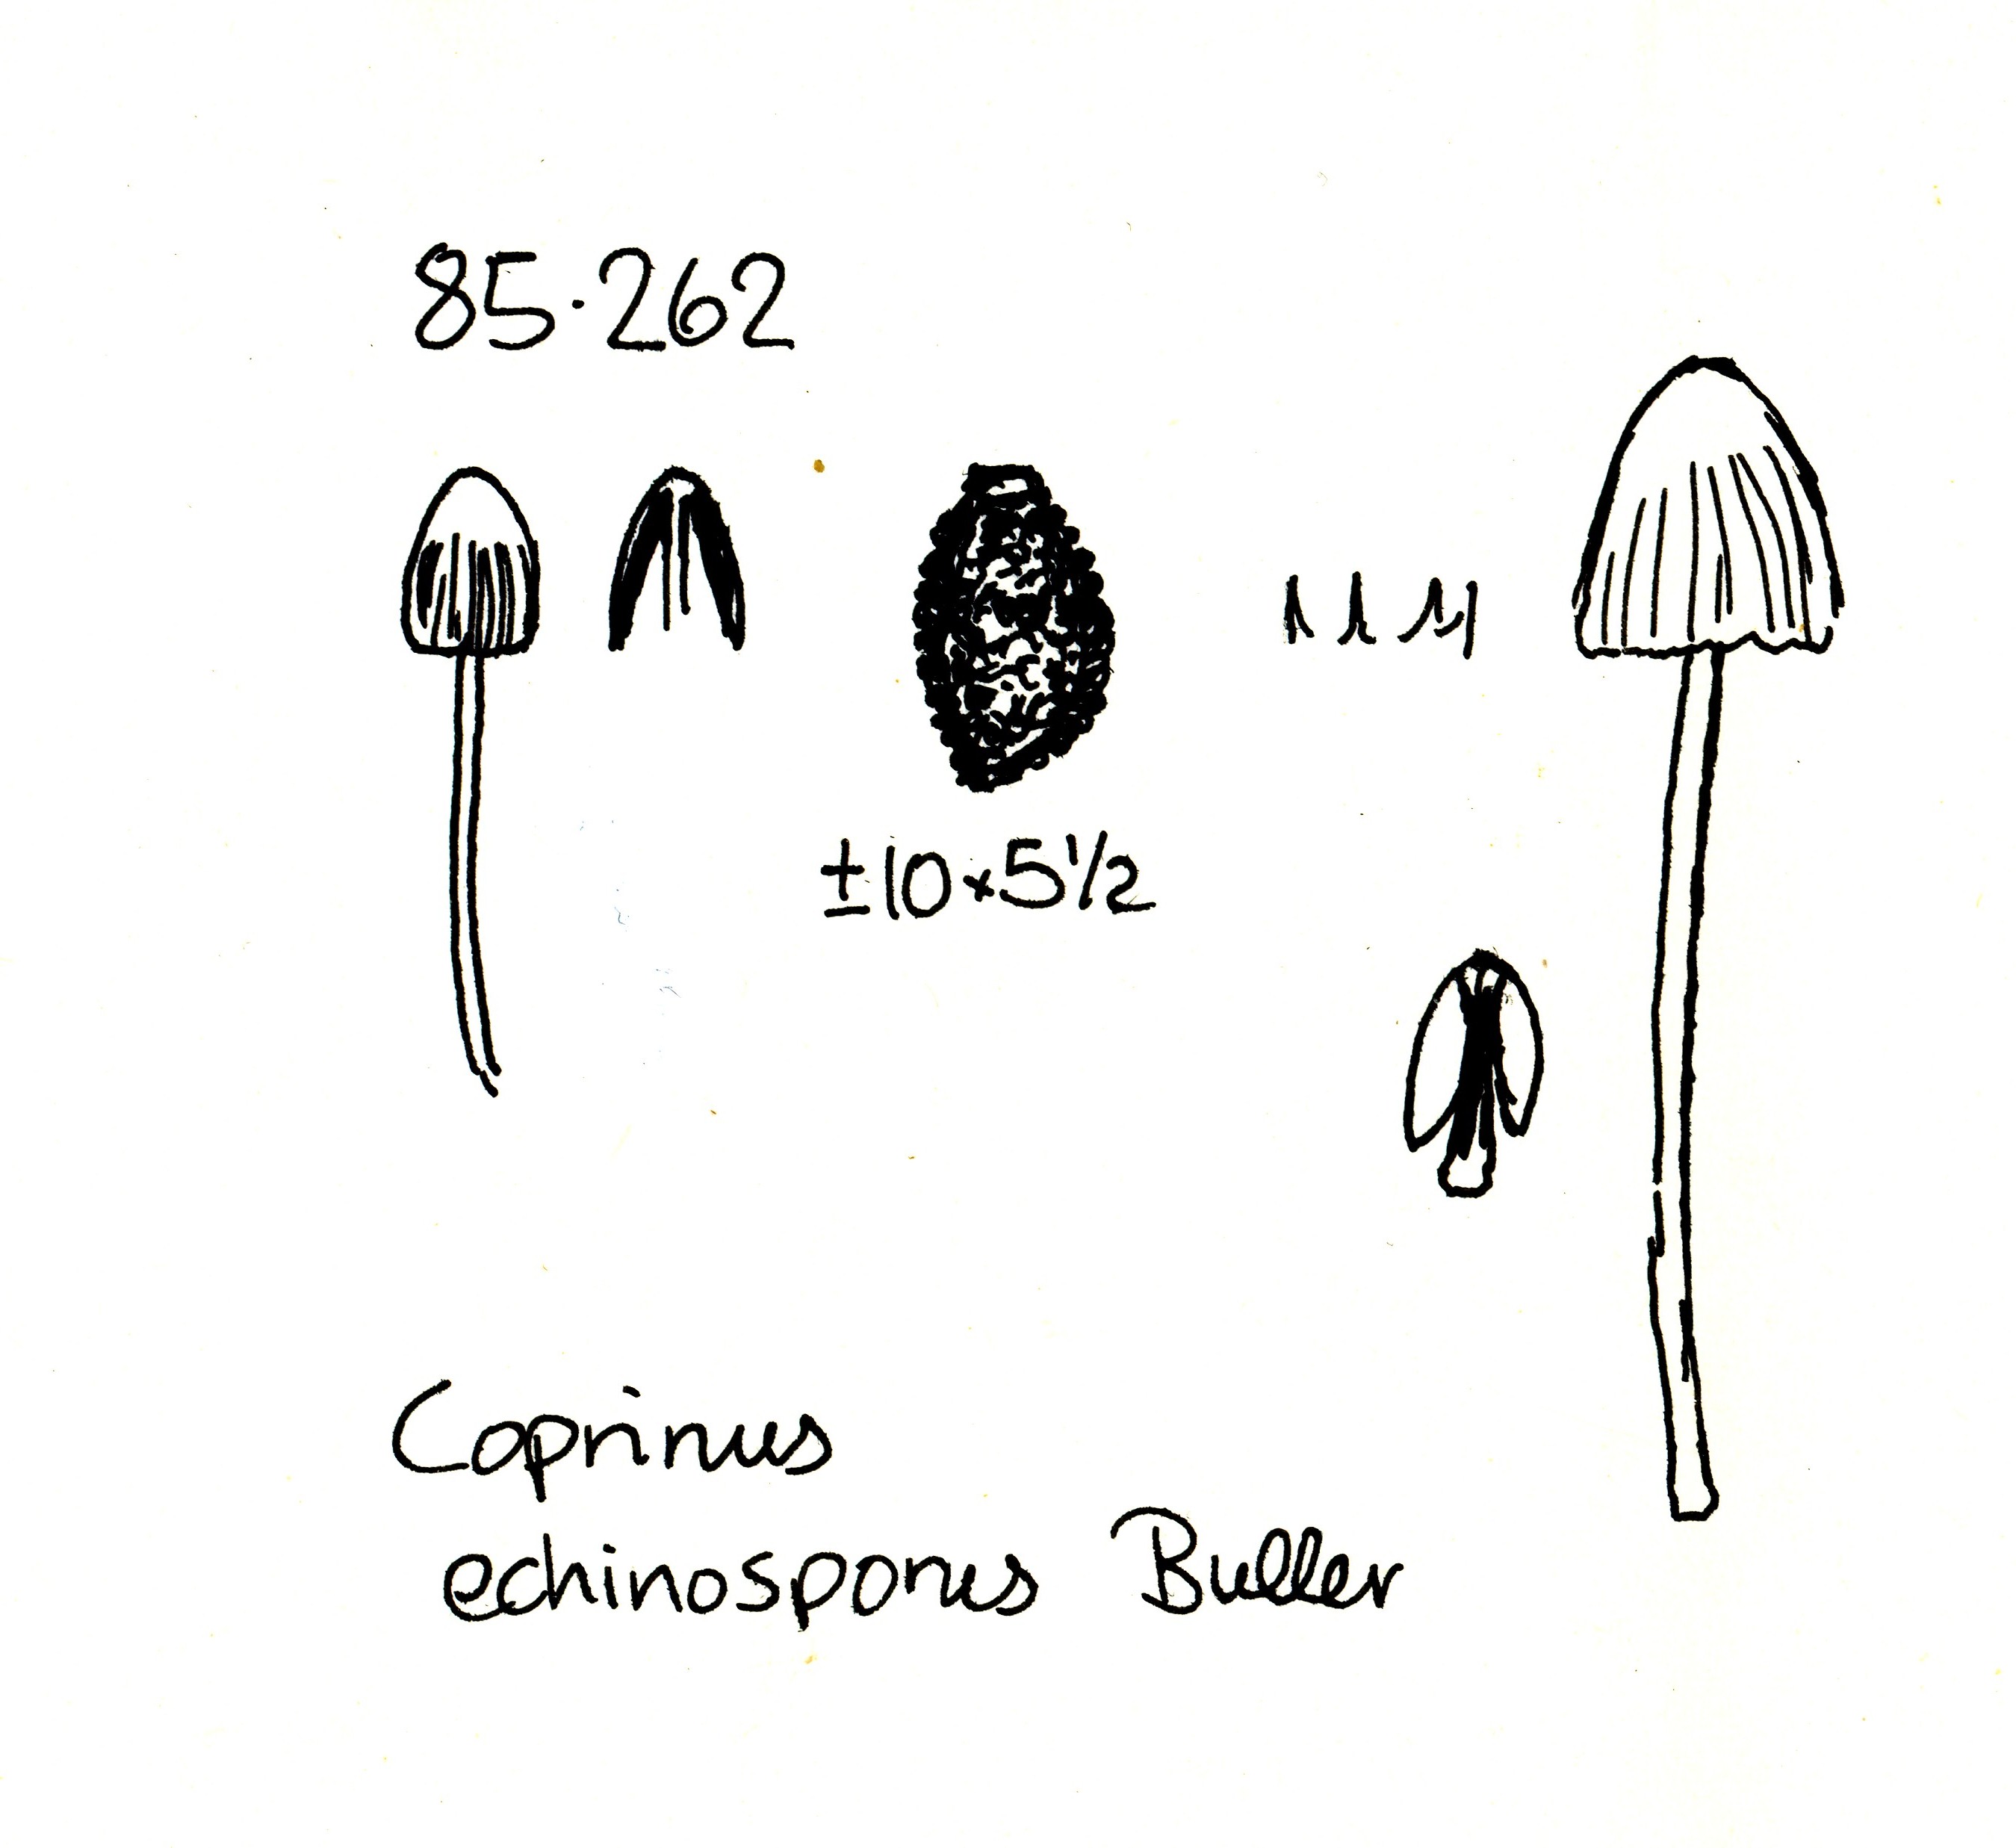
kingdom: Fungi
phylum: Basidiomycota
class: Agaricomycetes
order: Agaricales
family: Psathyrellaceae
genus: Coprinopsis
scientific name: Coprinopsis echinospora
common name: fuglemøg-blækhat
